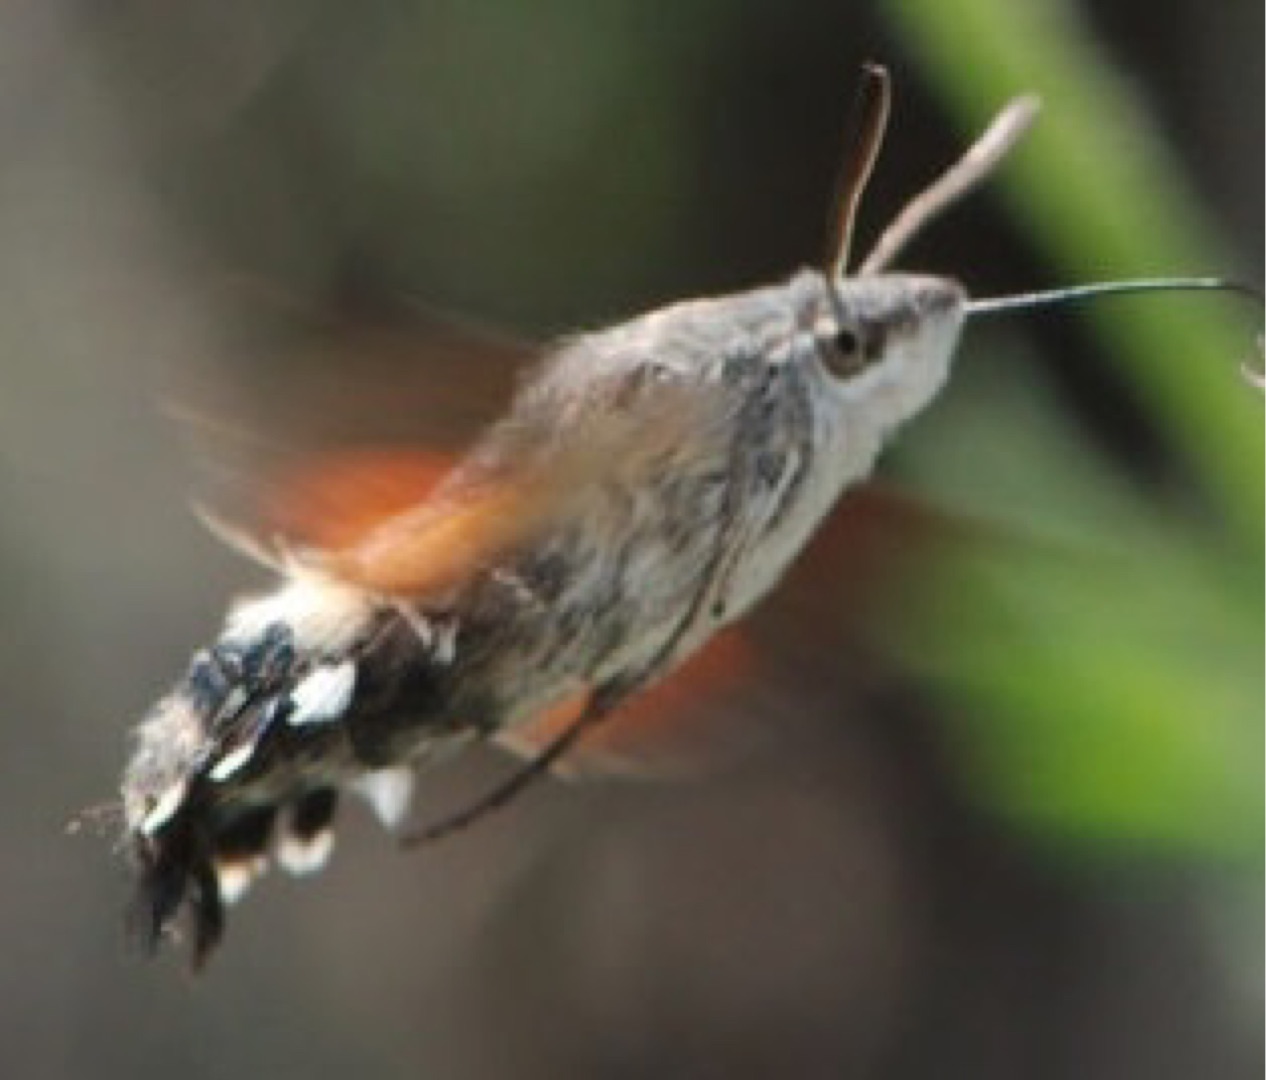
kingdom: Animalia
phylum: Arthropoda
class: Insecta
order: Lepidoptera
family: Sphingidae
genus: Macroglossum
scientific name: Macroglossum stellatarum
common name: Duehale
